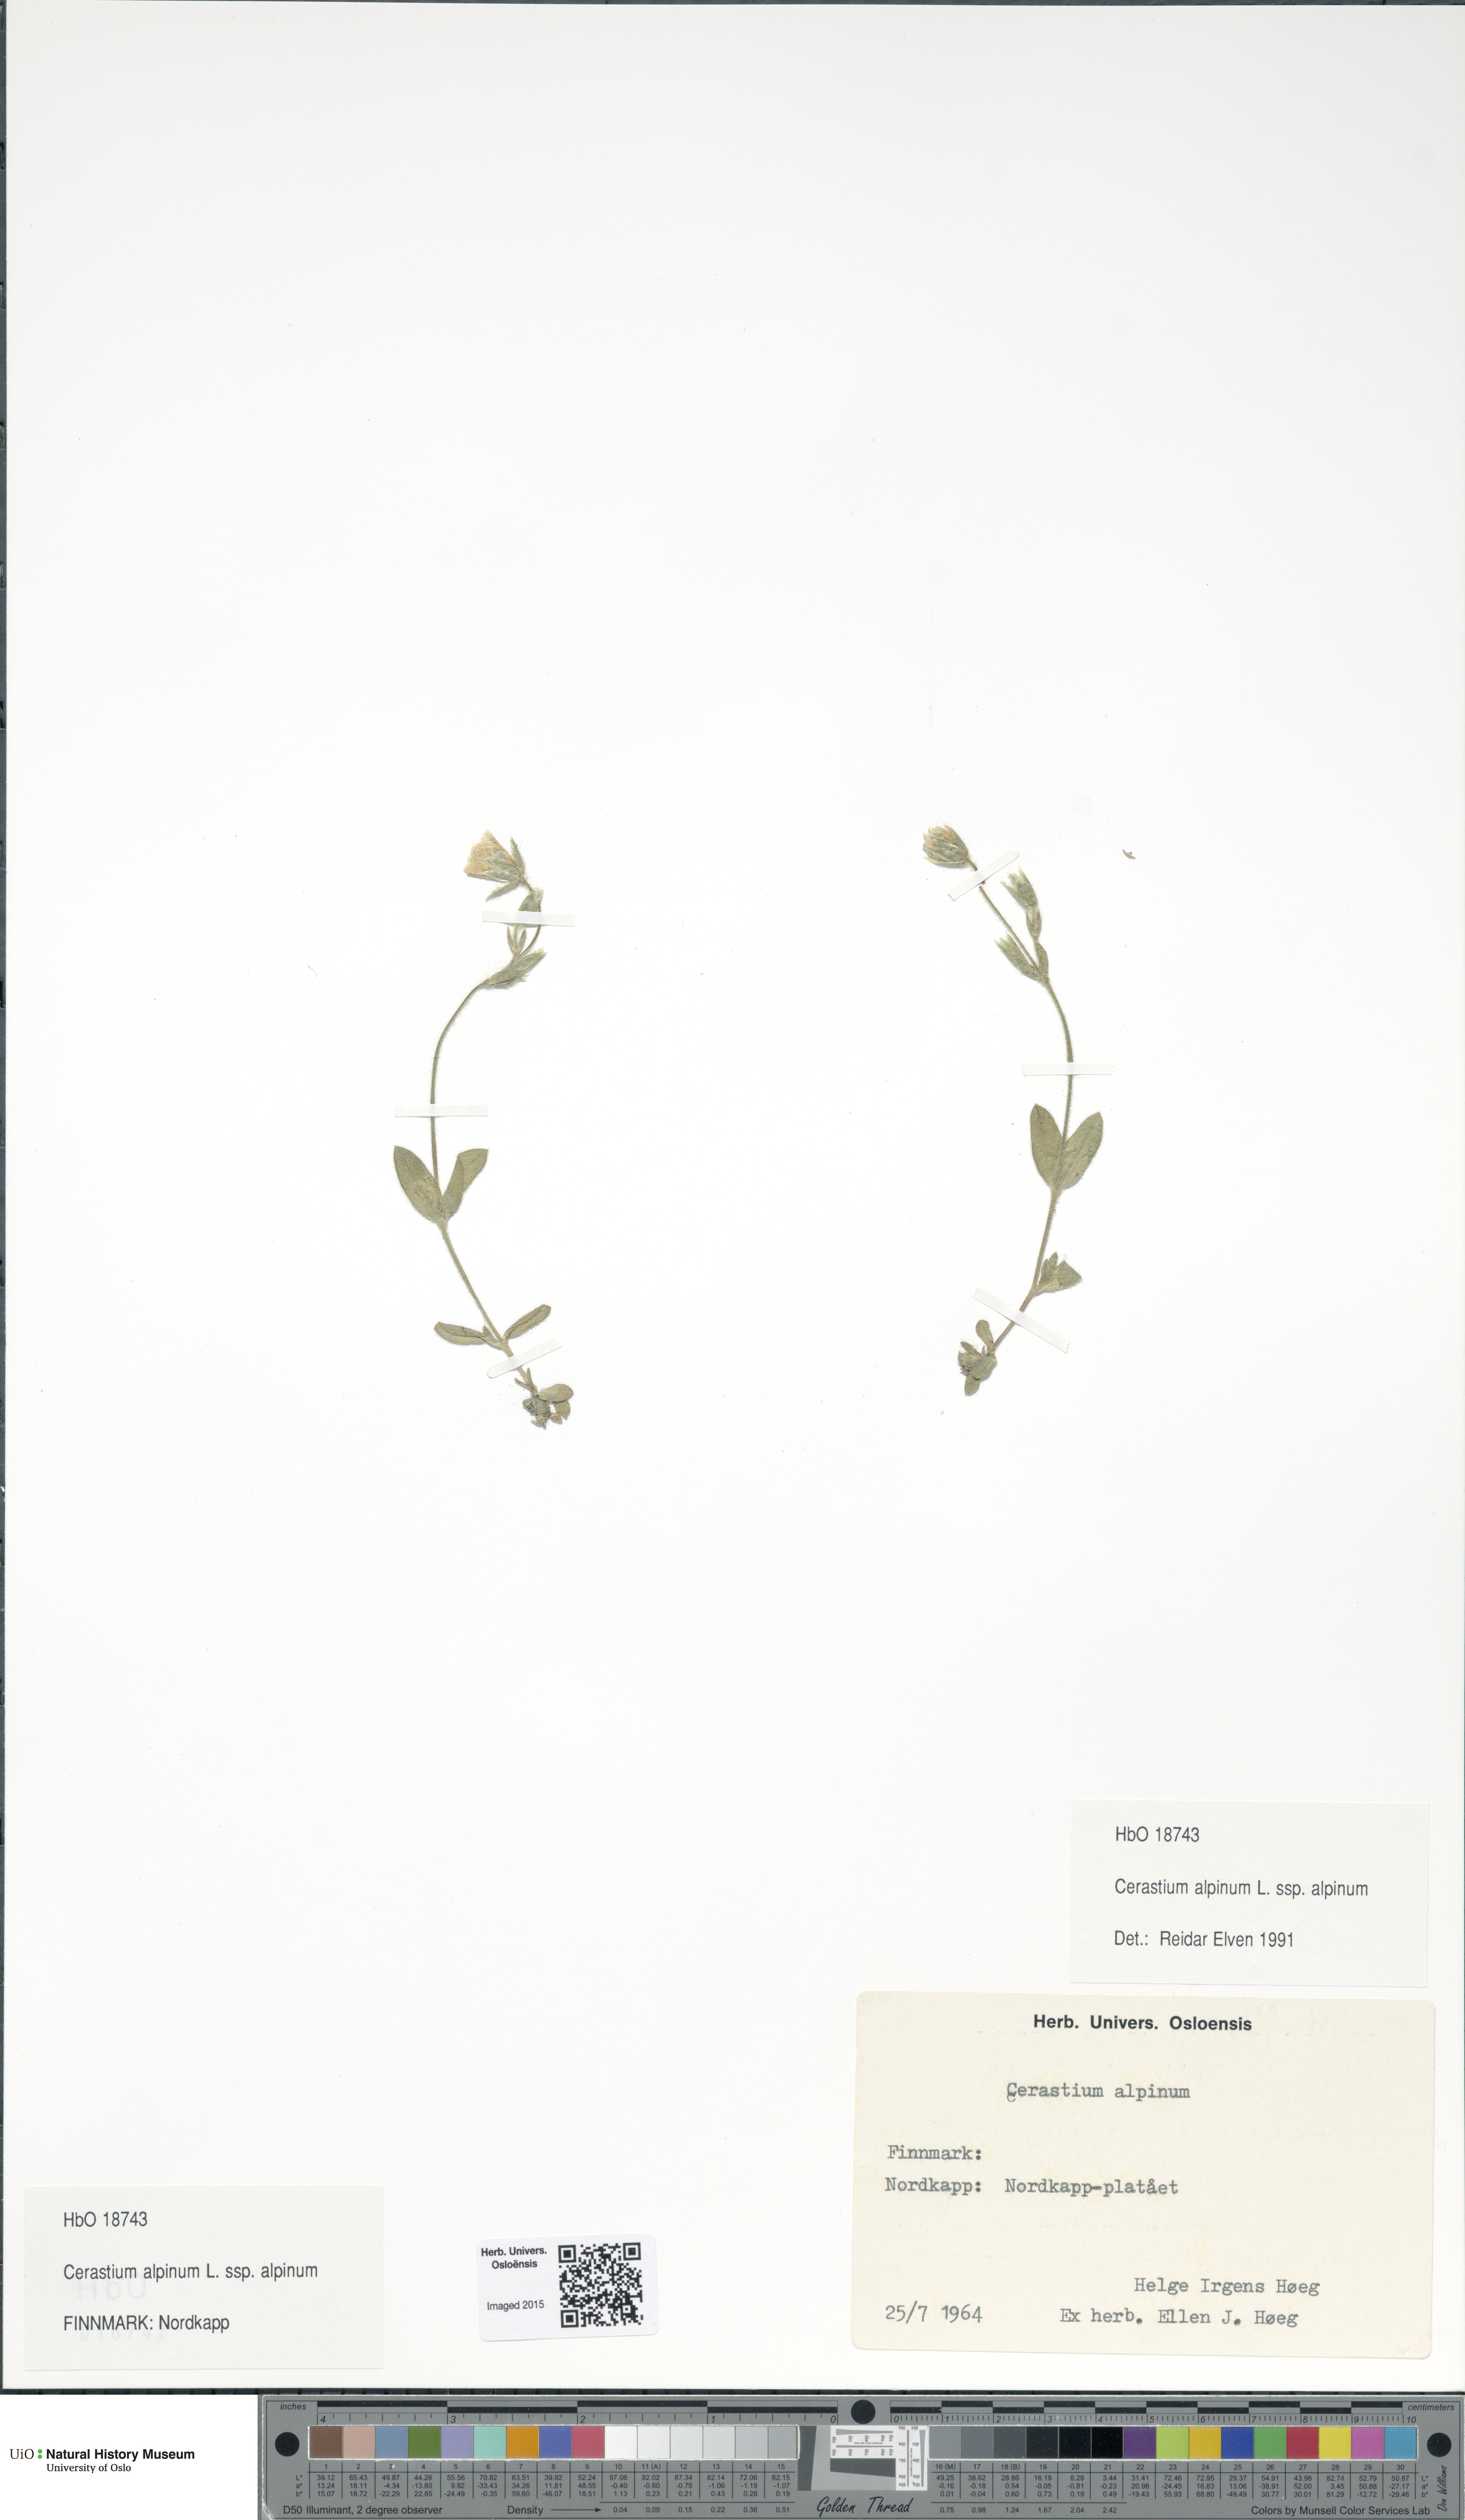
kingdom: Plantae
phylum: Tracheophyta
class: Magnoliopsida
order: Caryophyllales
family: Caryophyllaceae
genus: Cerastium
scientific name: Cerastium alpinum
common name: Alpine mouse-ear
